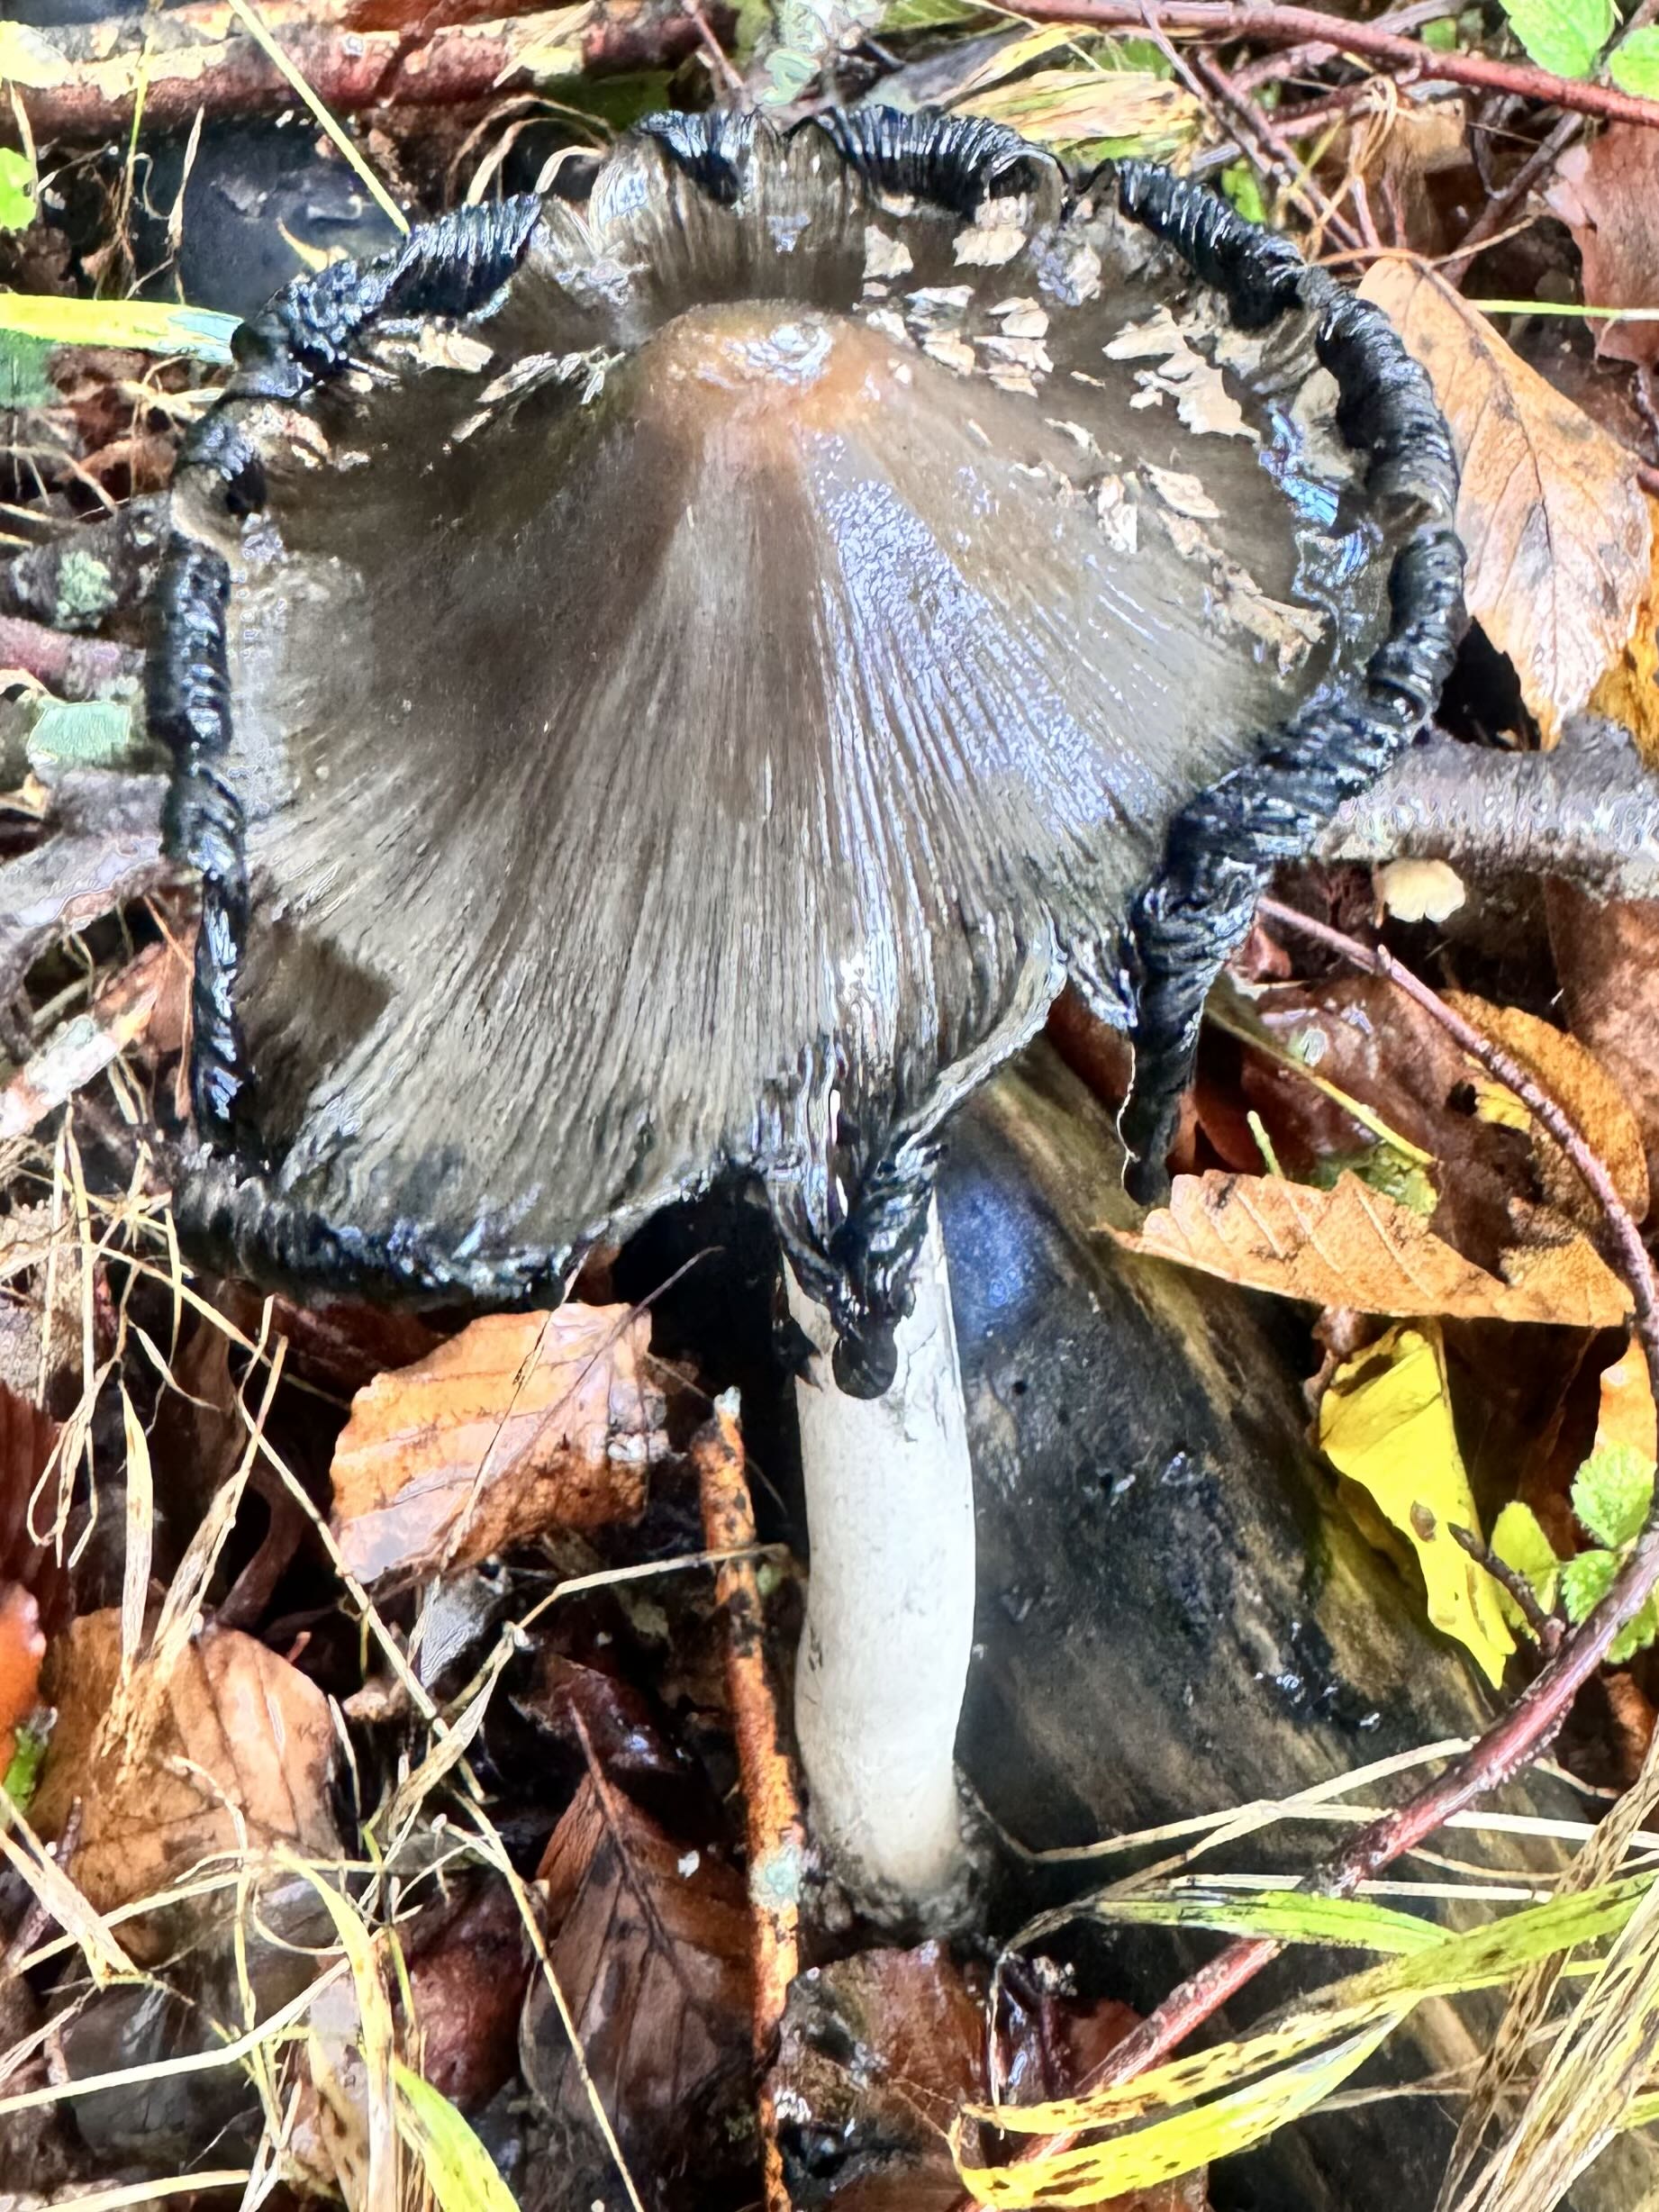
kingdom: Fungi
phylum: Basidiomycota
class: Agaricomycetes
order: Agaricales
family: Psathyrellaceae
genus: Coprinopsis
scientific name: Coprinopsis picacea
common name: skade-blækhat
